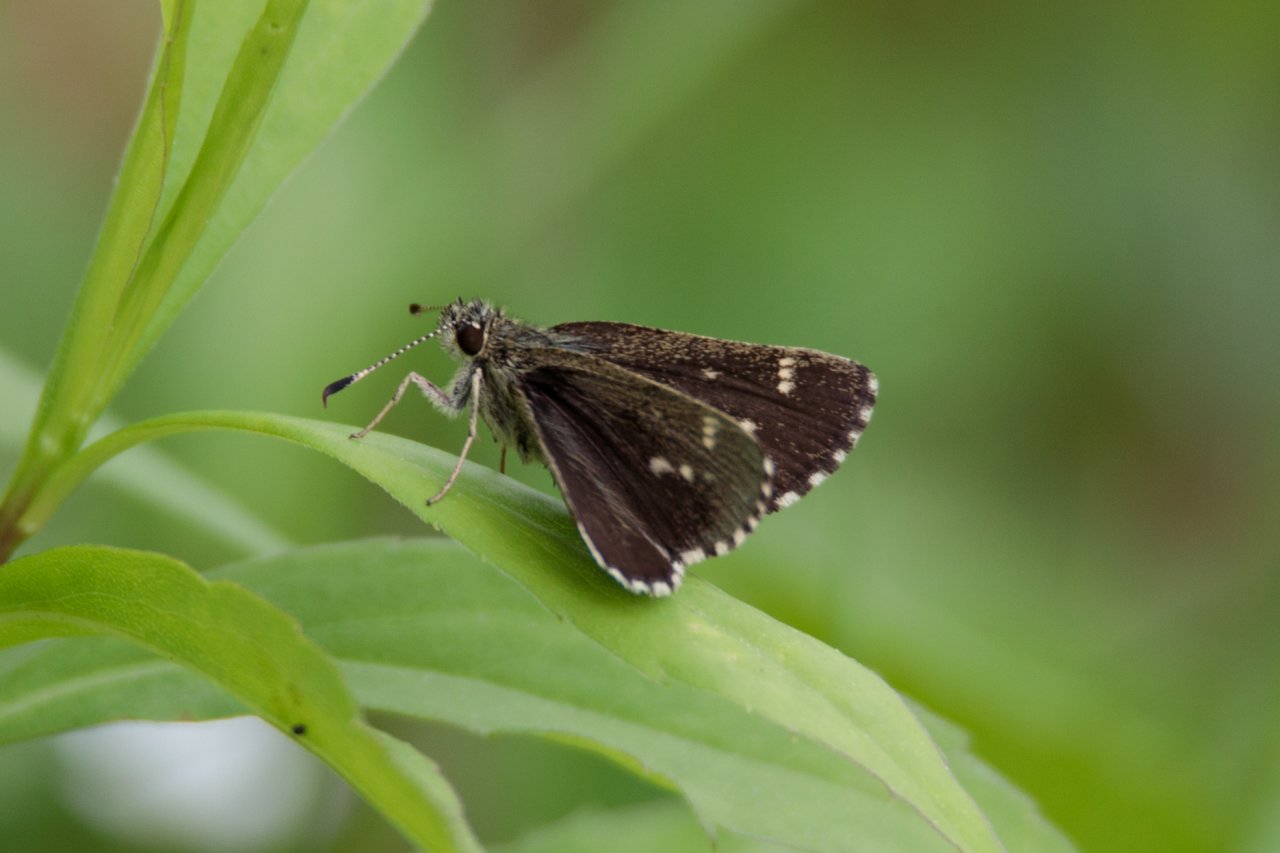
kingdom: Animalia
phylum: Arthropoda
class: Insecta
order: Lepidoptera
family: Hesperiidae
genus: Mastor
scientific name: Mastor hegon
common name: Pepper and Salt Skipper
